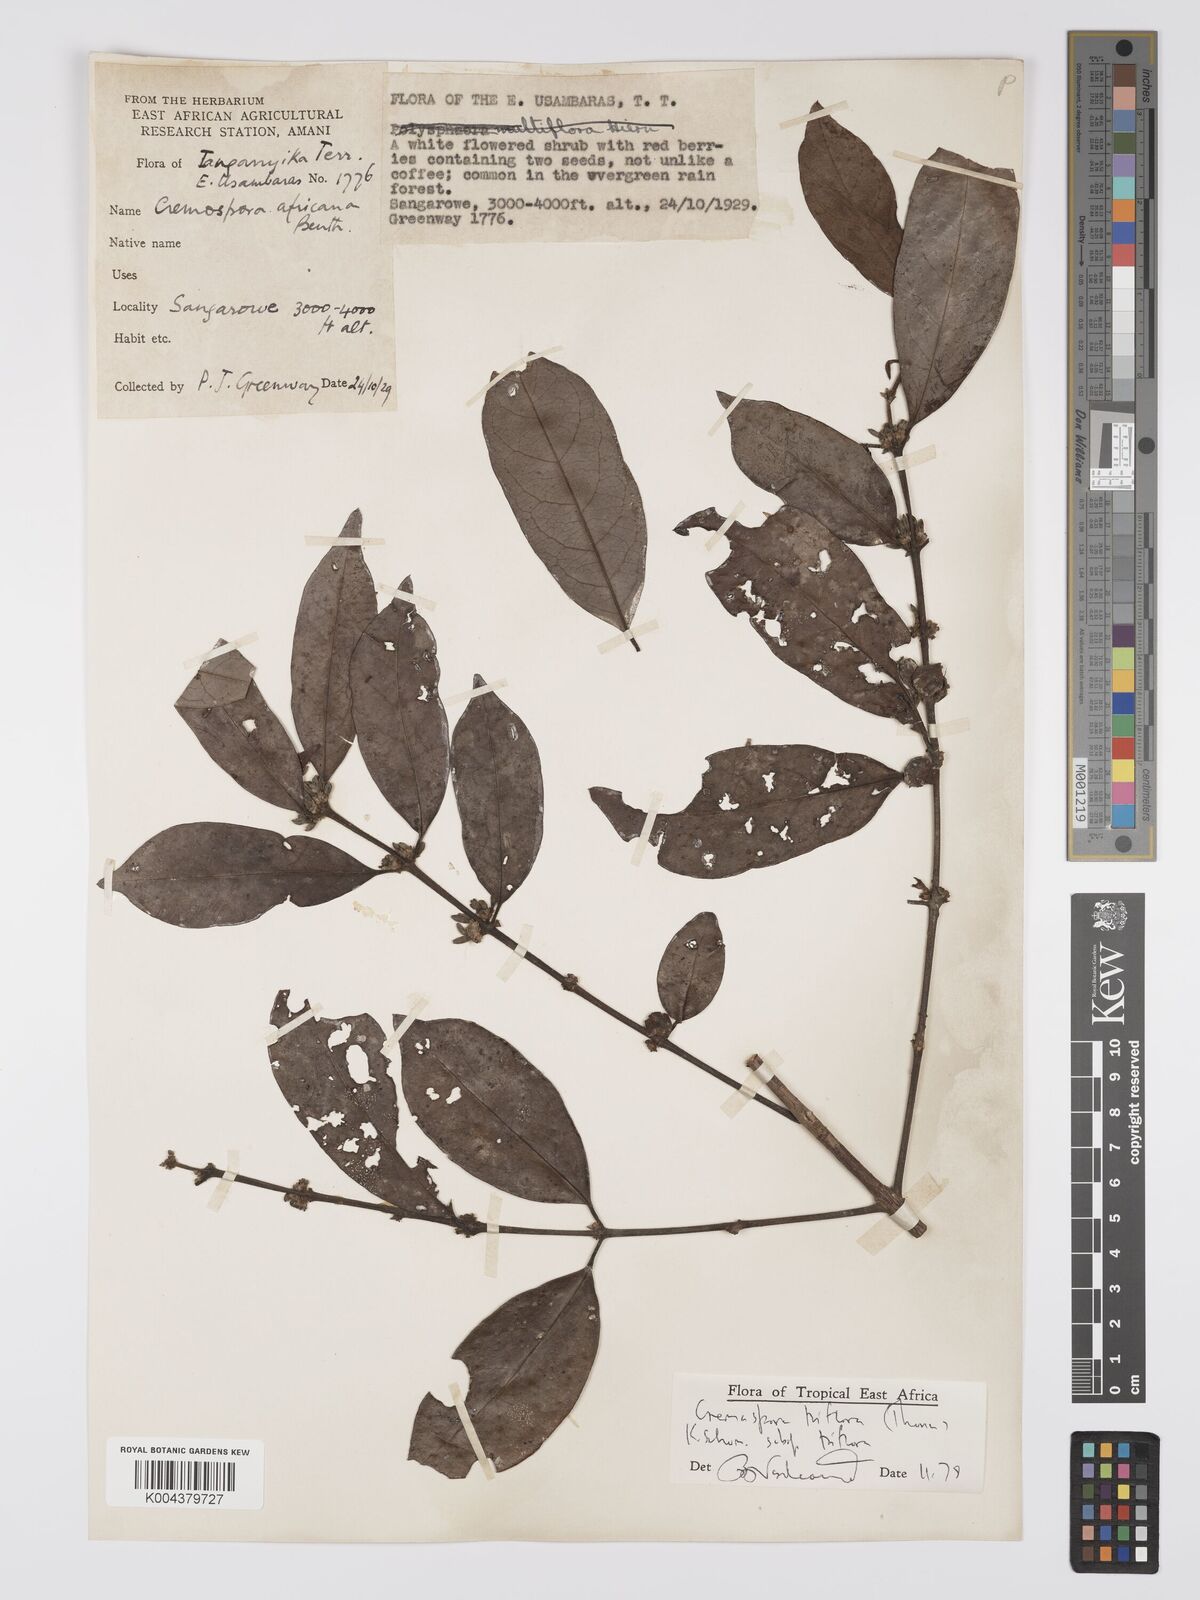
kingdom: Plantae
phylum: Tracheophyta
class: Magnoliopsida
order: Gentianales
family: Rubiaceae
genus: Cremaspora
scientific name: Cremaspora triflora
